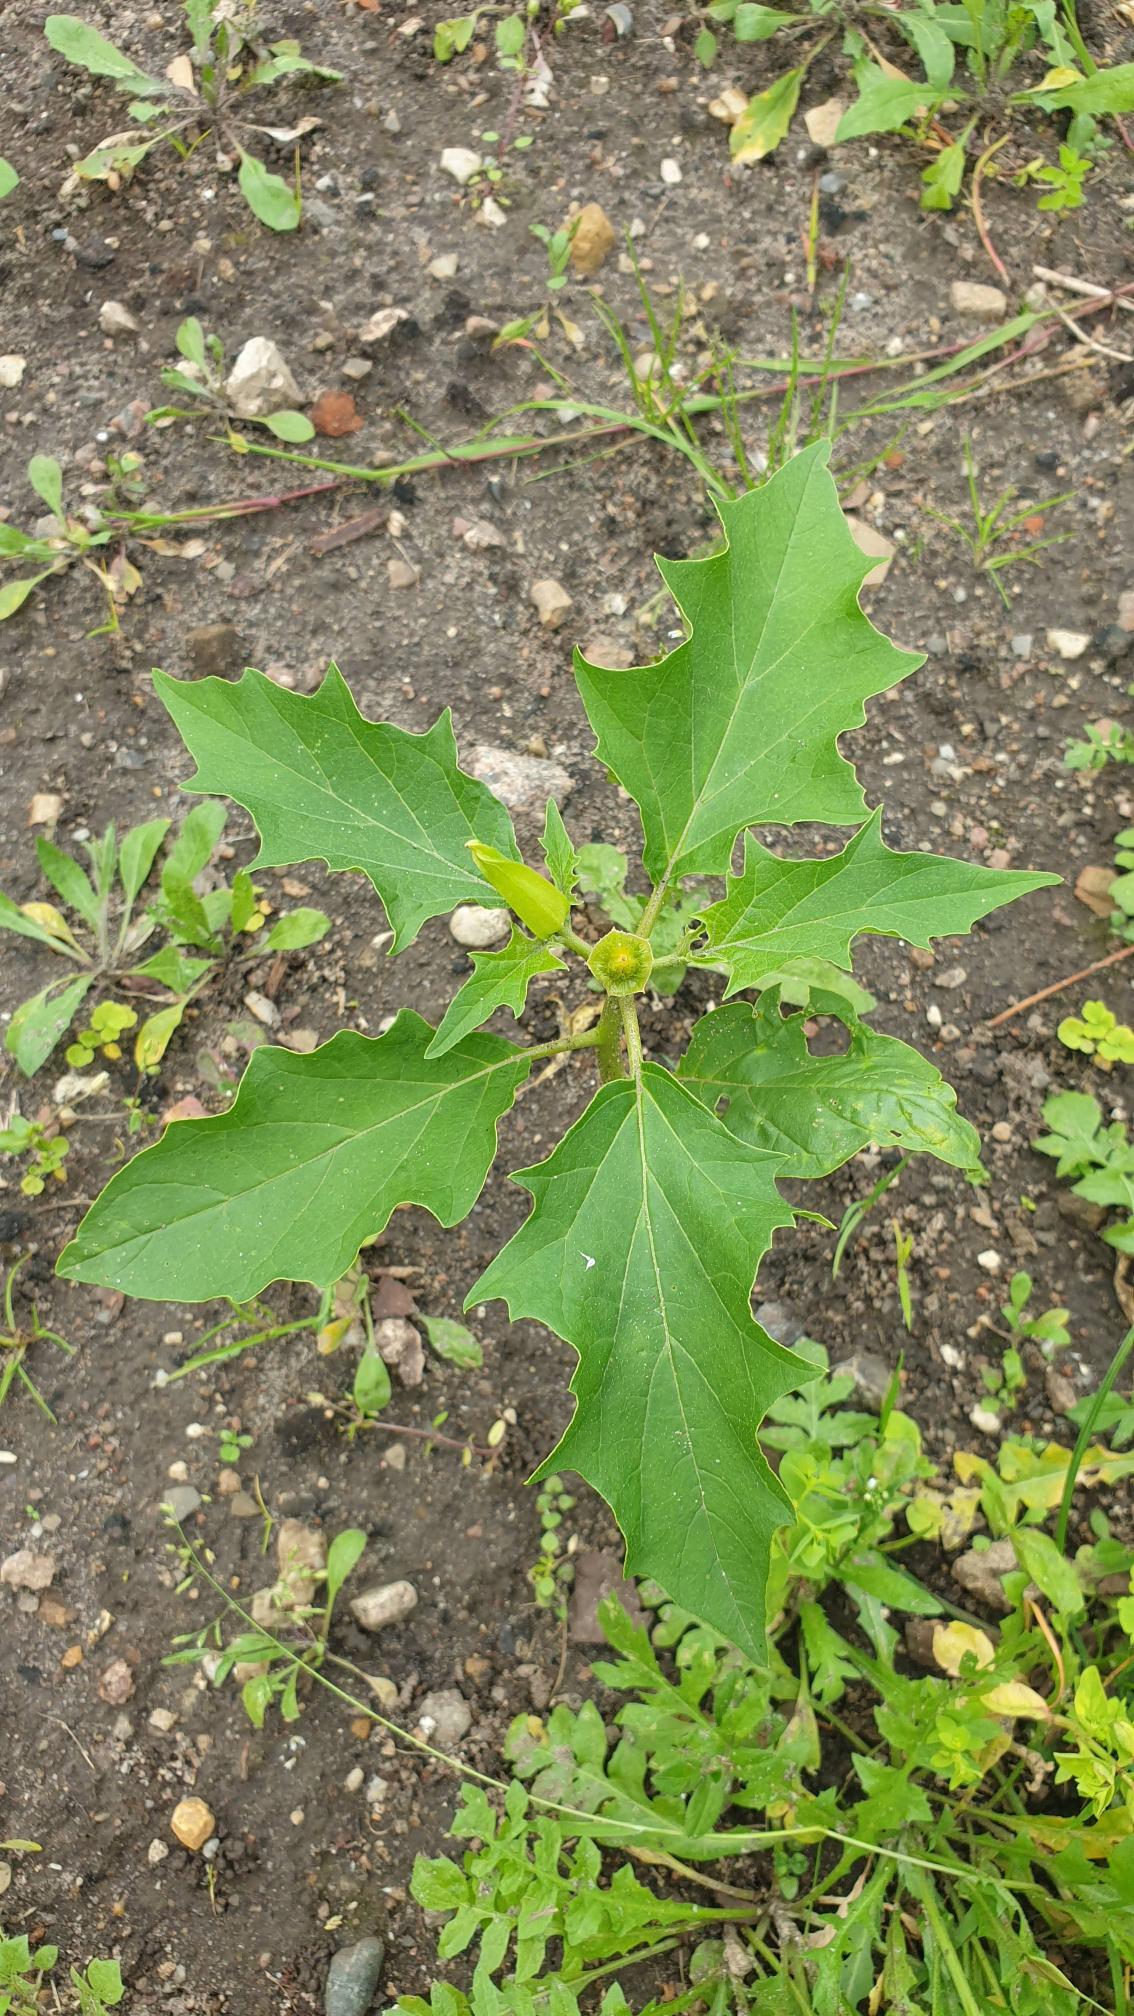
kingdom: Plantae
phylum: Tracheophyta
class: Magnoliopsida
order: Solanales
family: Solanaceae
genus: Datura
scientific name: Datura stramonium
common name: Pigæble
